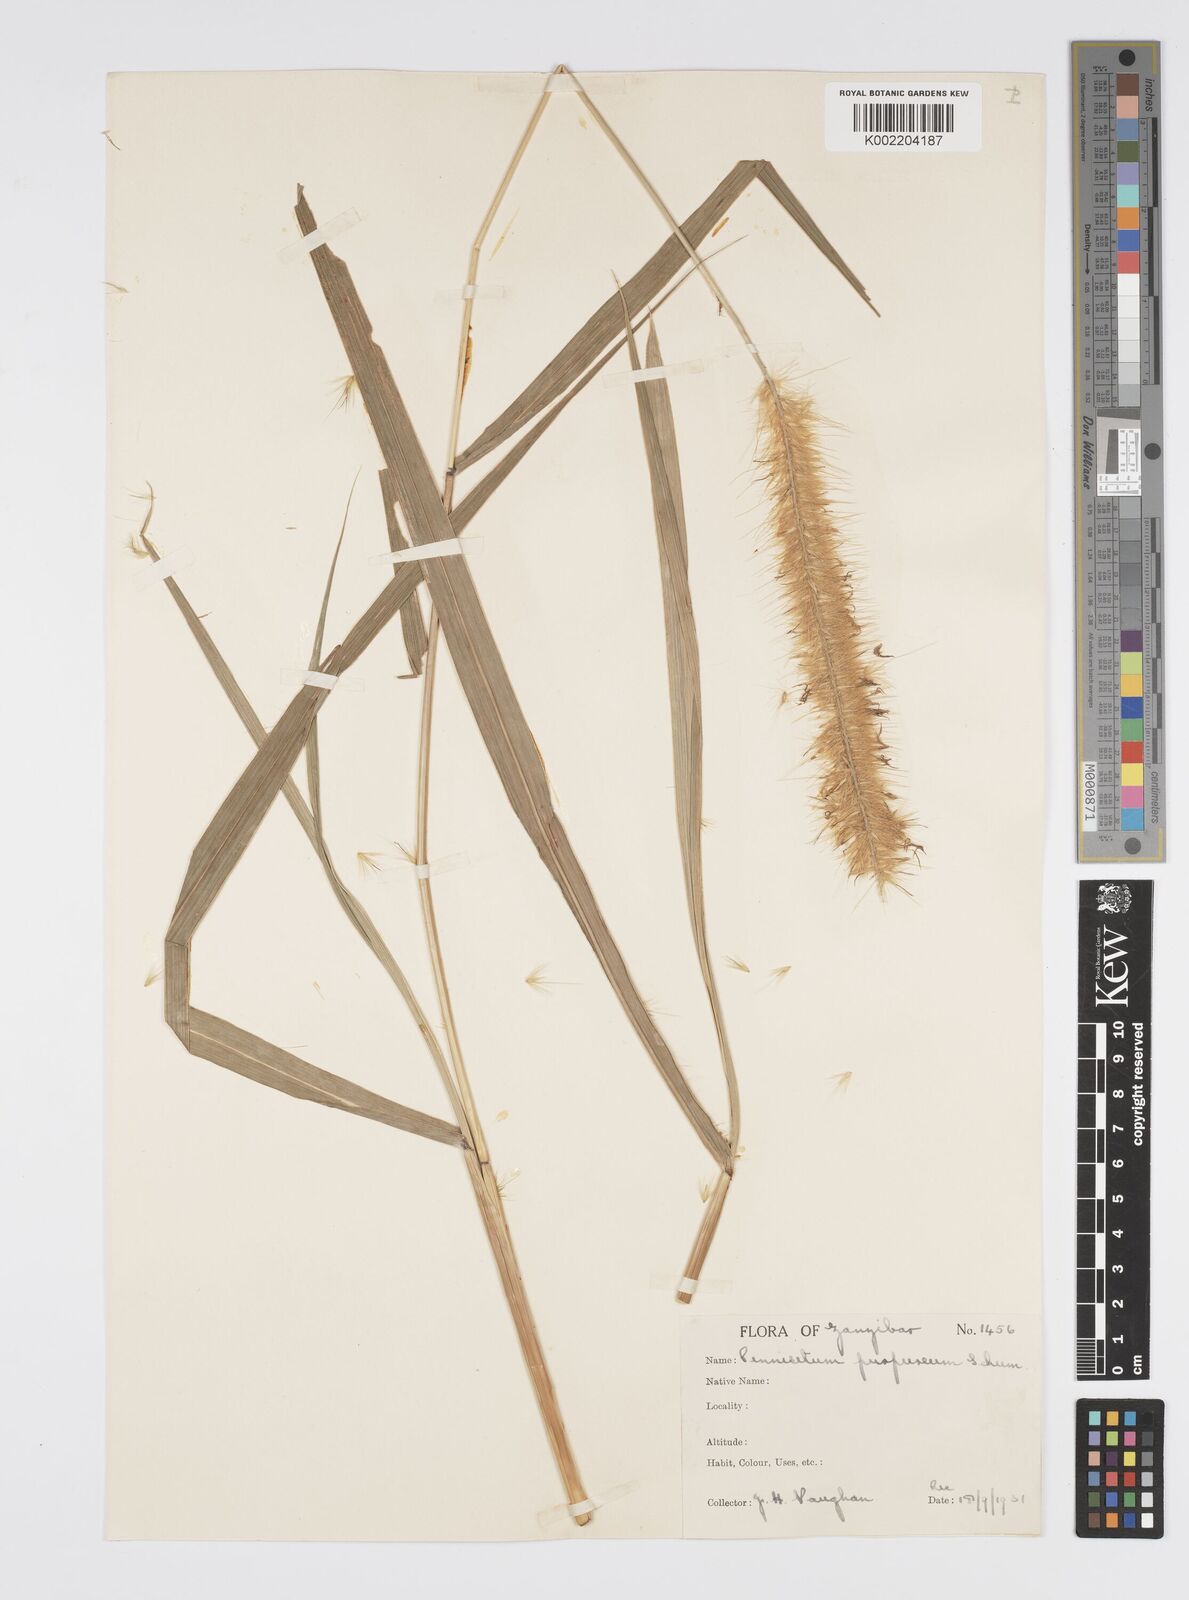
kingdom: Plantae
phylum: Tracheophyta
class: Liliopsida
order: Poales
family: Poaceae
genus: Cenchrus
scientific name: Cenchrus purpureus
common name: Elephant grass
